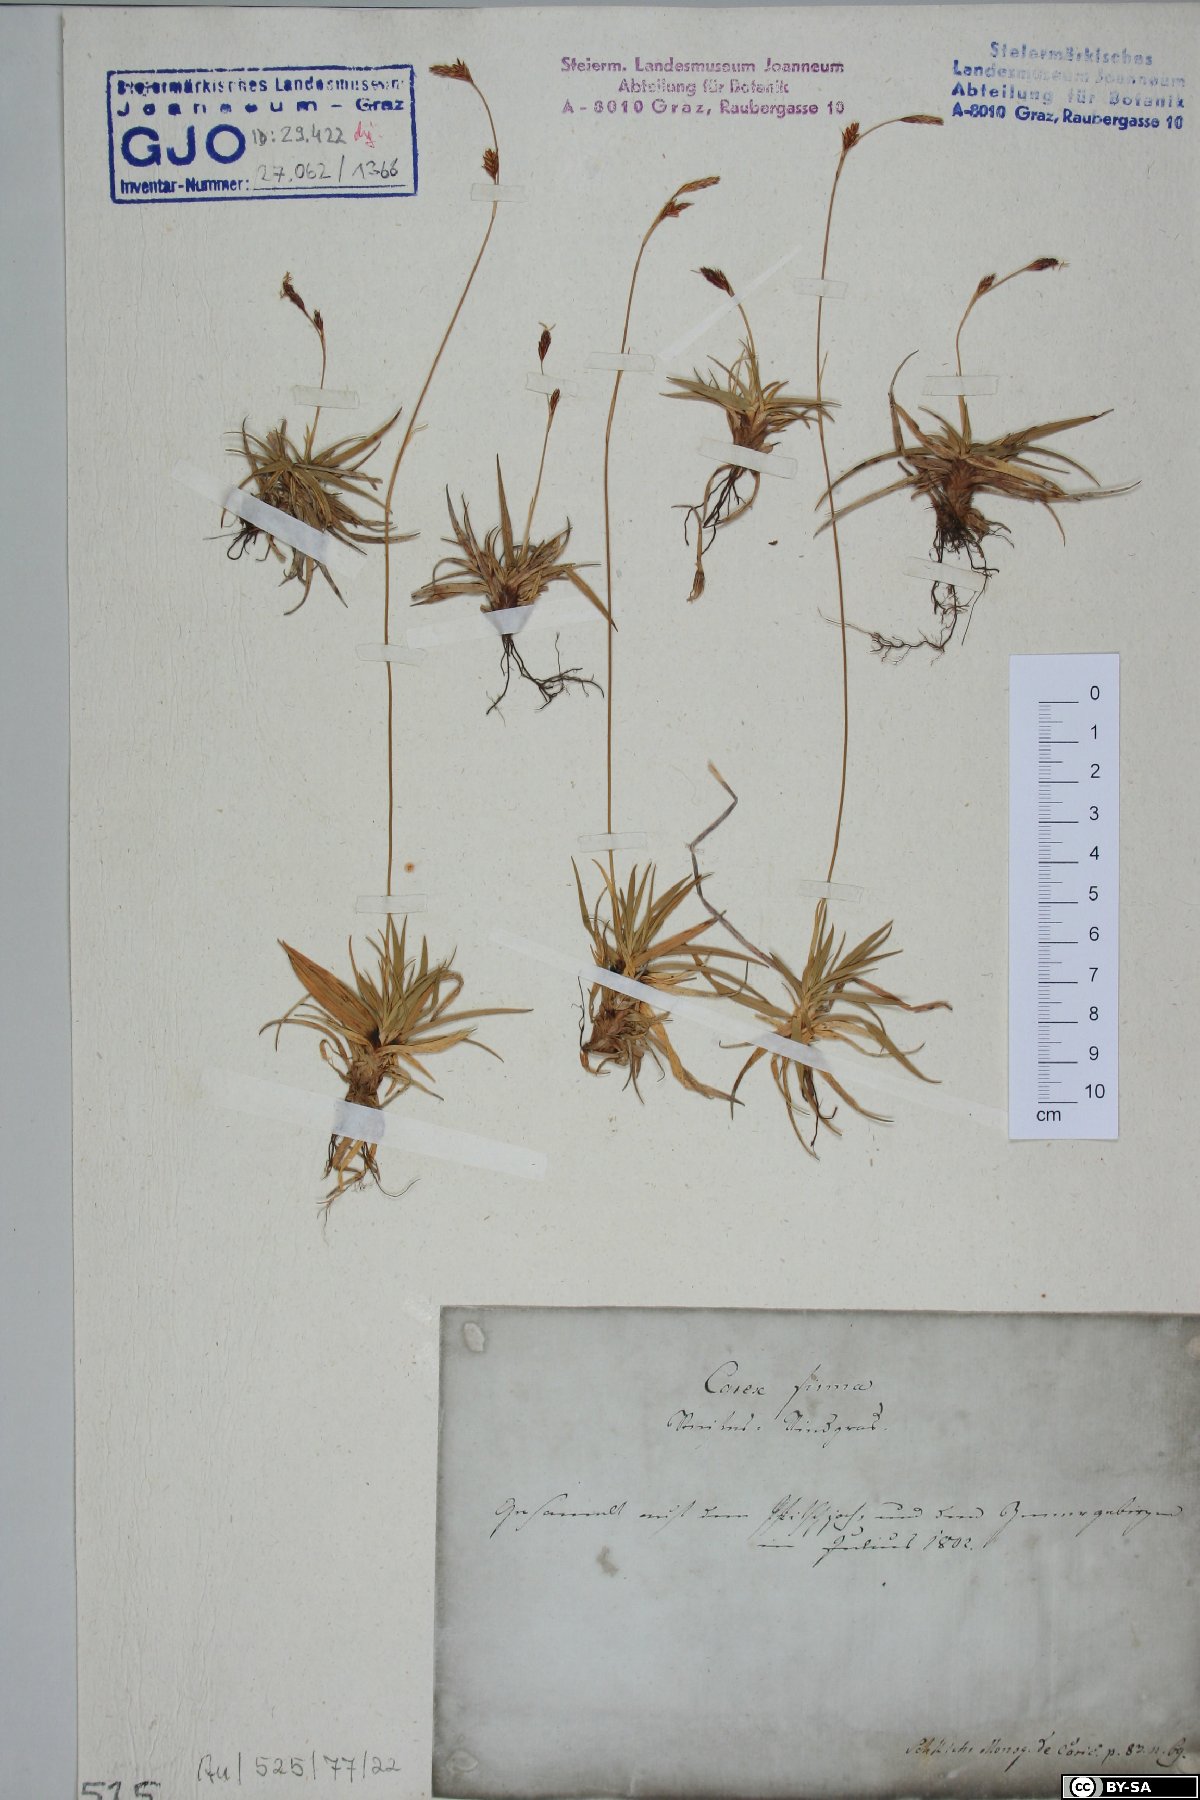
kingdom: Plantae
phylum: Tracheophyta
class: Liliopsida
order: Poales
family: Cyperaceae
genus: Carex
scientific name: Carex firma
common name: Dwarf pillow sedge
